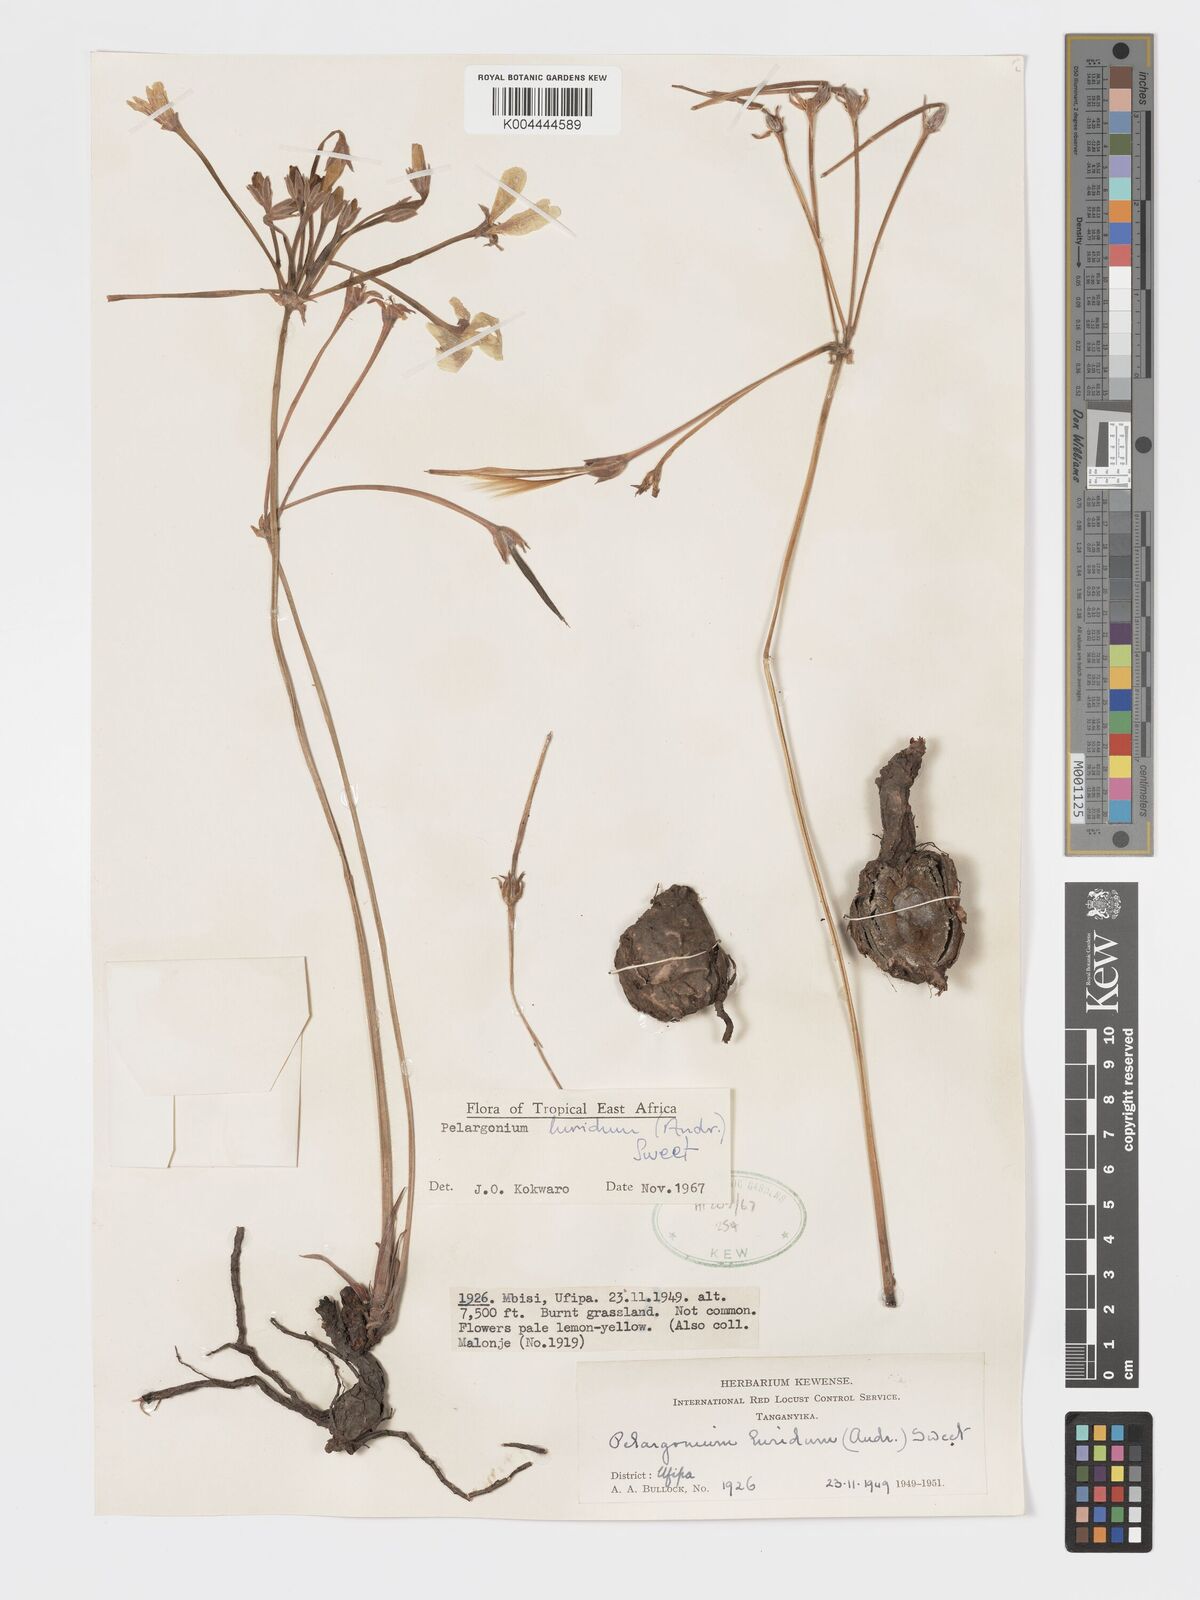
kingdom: Plantae
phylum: Tracheophyta
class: Magnoliopsida
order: Geraniales
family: Geraniaceae
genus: Pelargonium
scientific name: Pelargonium luridum
